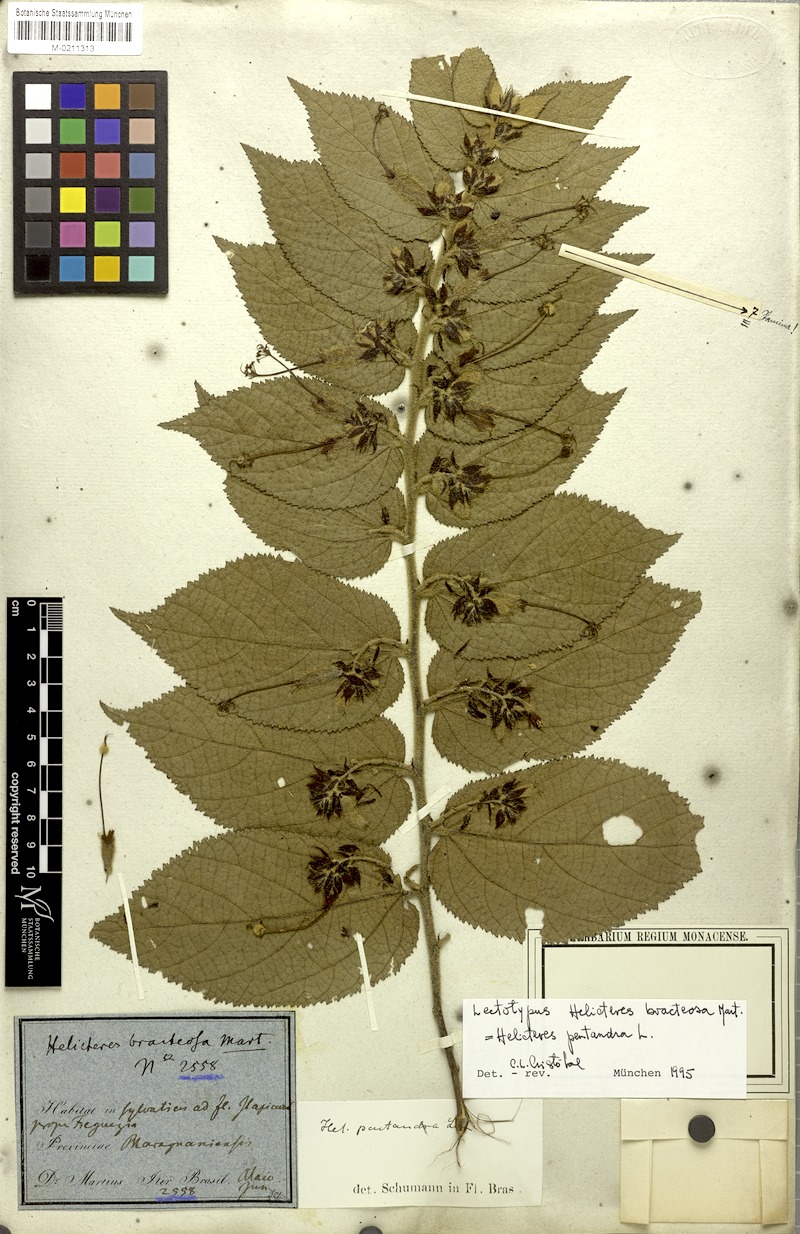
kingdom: Plantae
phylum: Tracheophyta
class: Magnoliopsida
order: Malvales
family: Malvaceae
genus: Helicteres
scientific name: Helicteres pentandra
